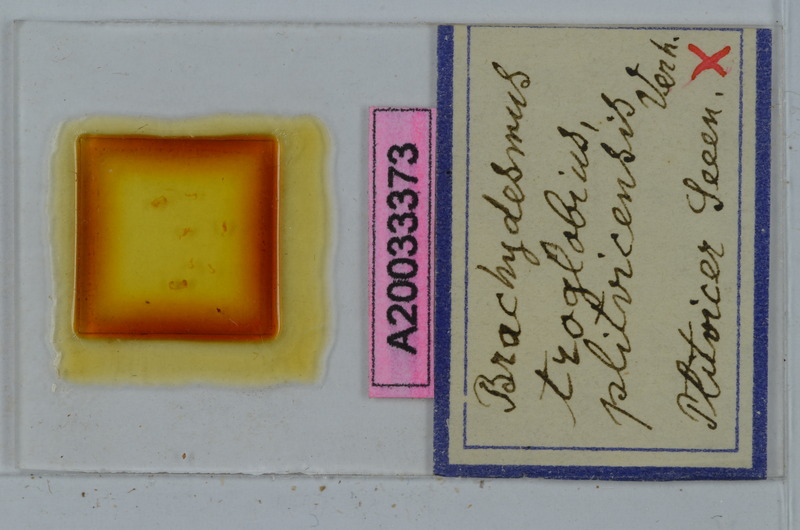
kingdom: Animalia
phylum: Arthropoda
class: Diplopoda
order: Polydesmida
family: Polydesmidae
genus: Brachydesmus
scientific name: Brachydesmus troglobius
